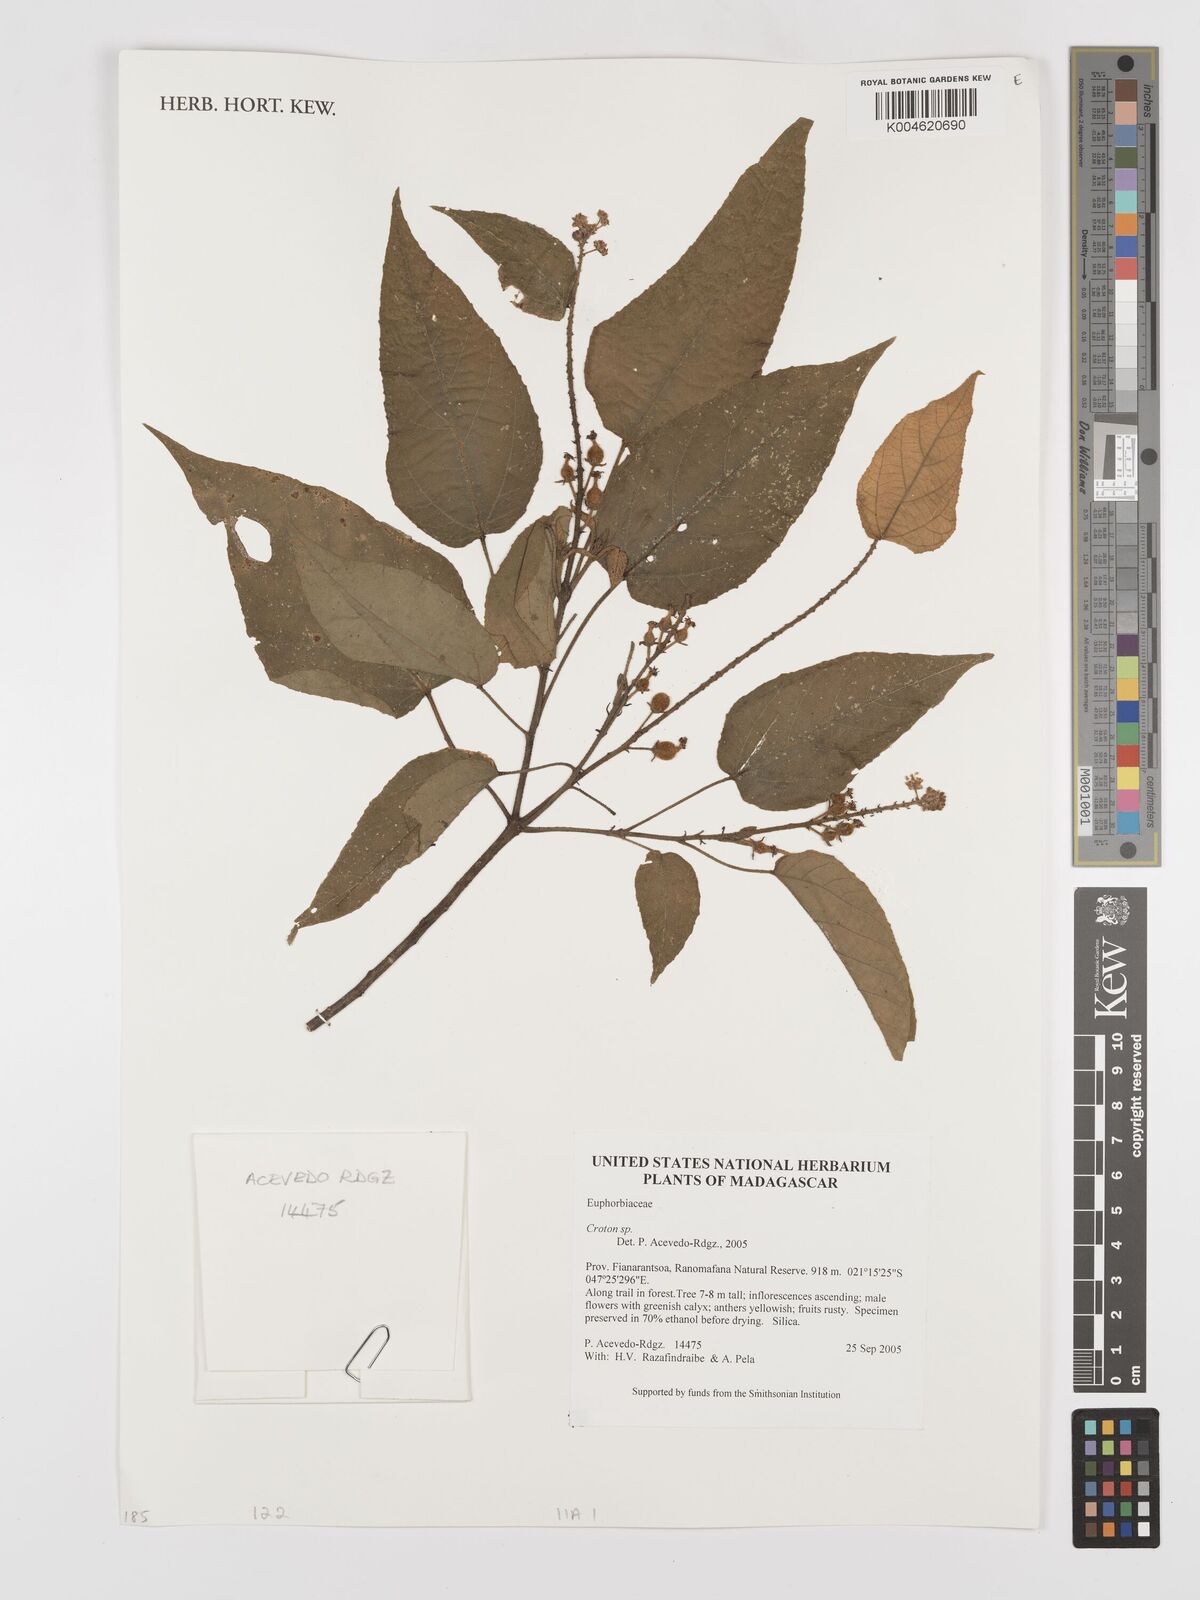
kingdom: Plantae
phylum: Tracheophyta
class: Magnoliopsida
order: Malpighiales
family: Euphorbiaceae
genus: Croton
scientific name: Croton
